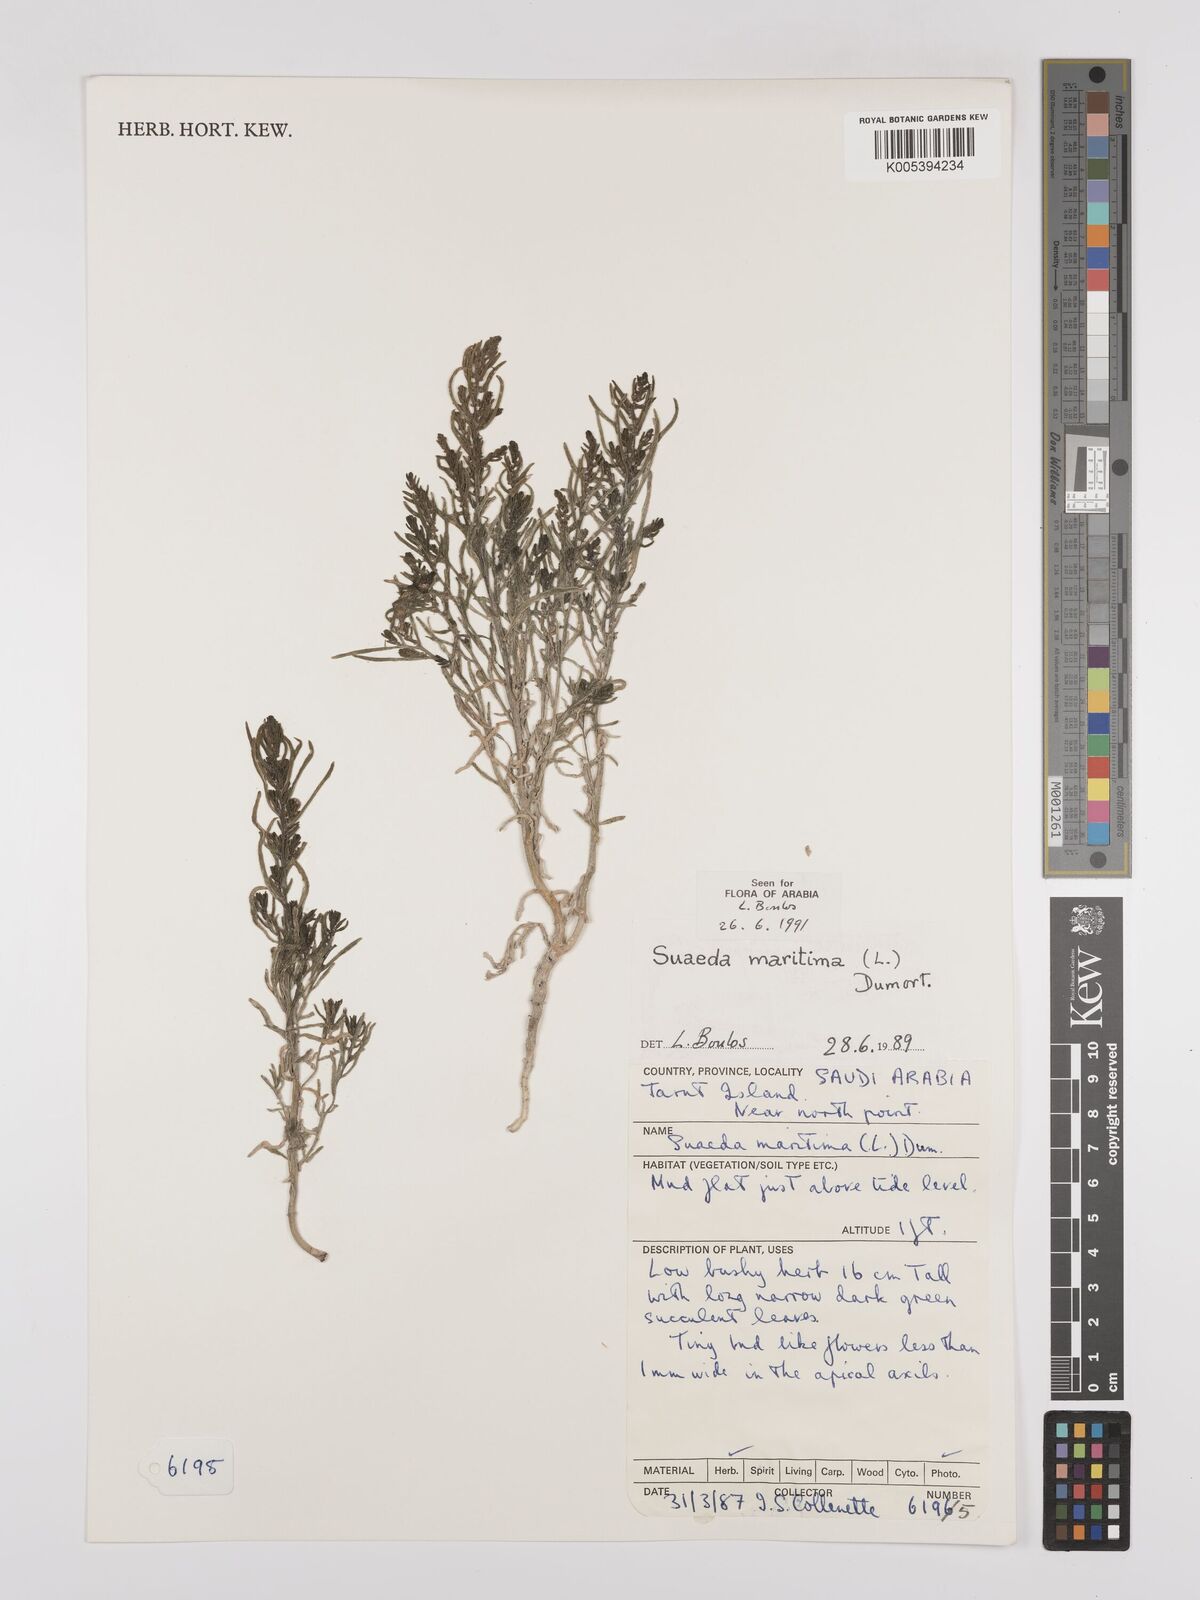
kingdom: Plantae
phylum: Tracheophyta
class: Magnoliopsida
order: Caryophyllales
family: Amaranthaceae
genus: Suaeda
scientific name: Suaeda
